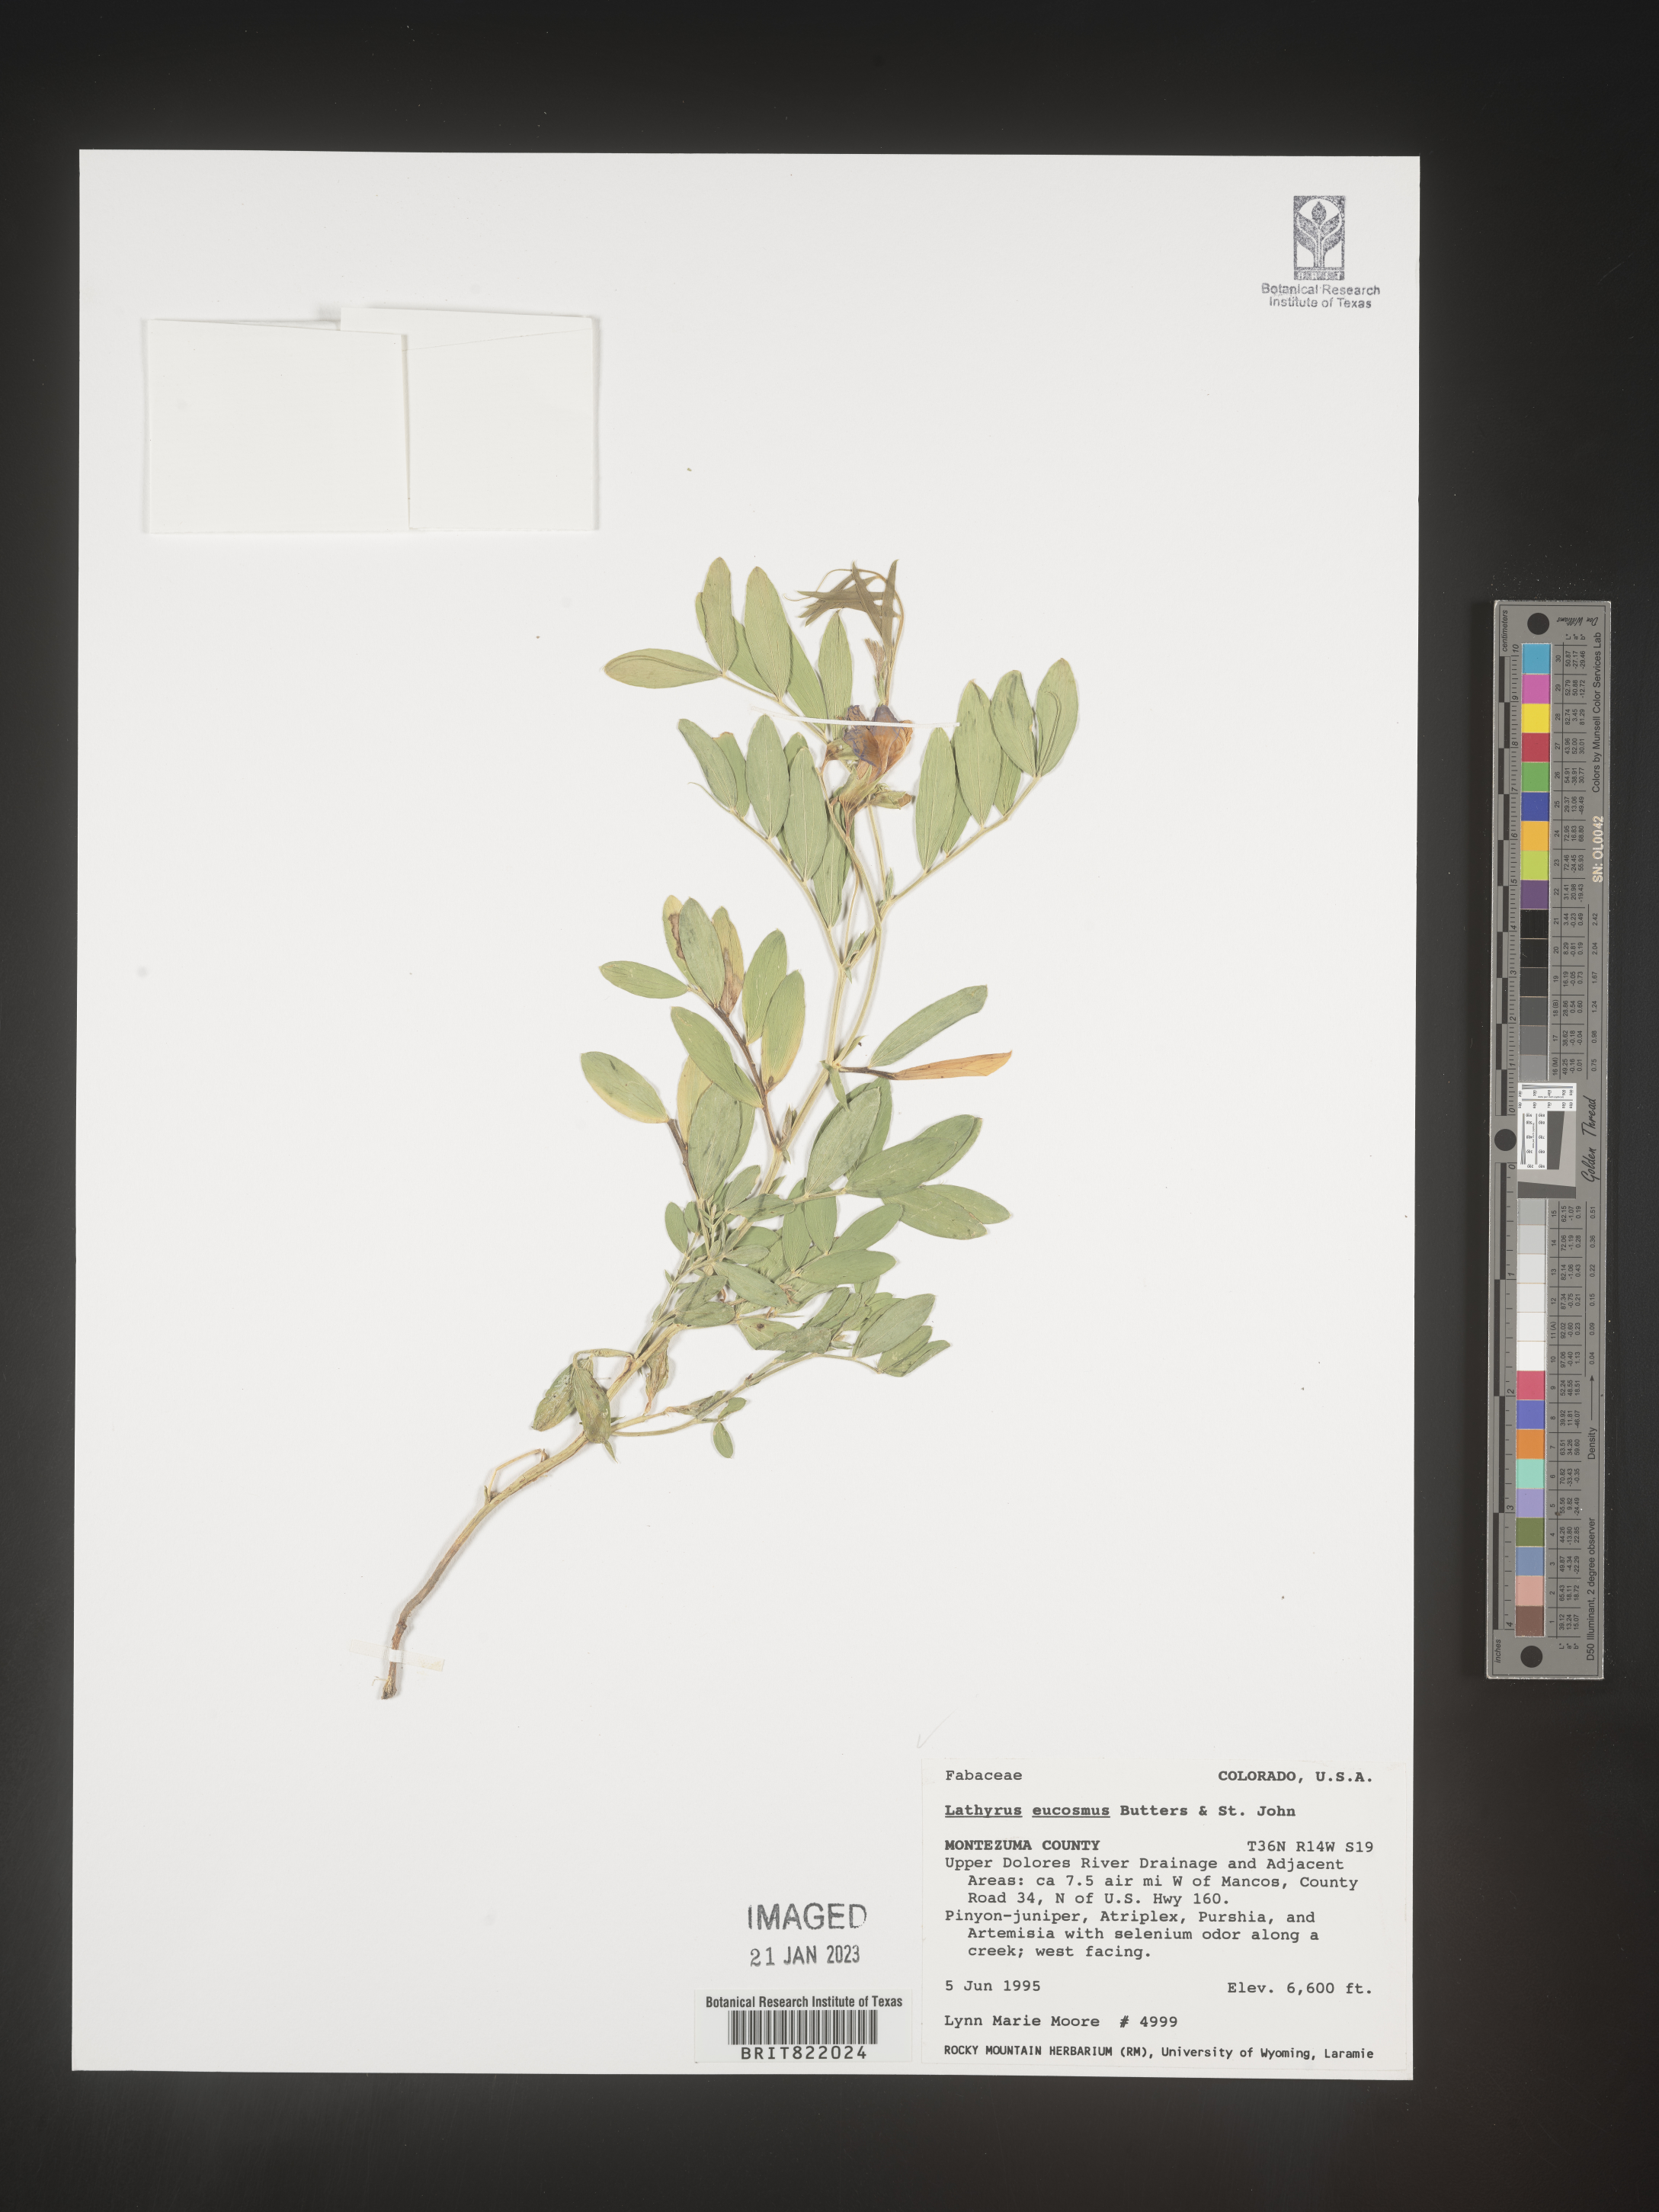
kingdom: Plantae
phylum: Tracheophyta
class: Magnoliopsida
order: Fabales
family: Fabaceae
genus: Lathyrus
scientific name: Lathyrus
